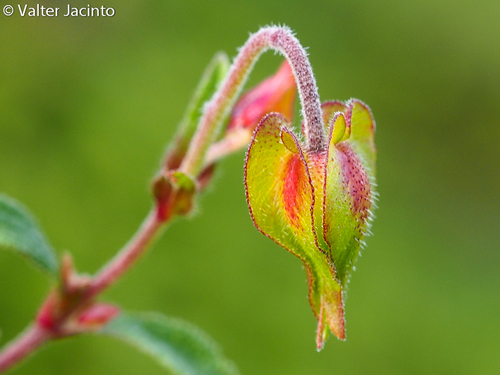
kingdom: Plantae
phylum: Tracheophyta
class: Magnoliopsida
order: Malvales
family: Cistaceae
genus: Cistus
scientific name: Cistus salviifolius
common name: Salvia cistus
